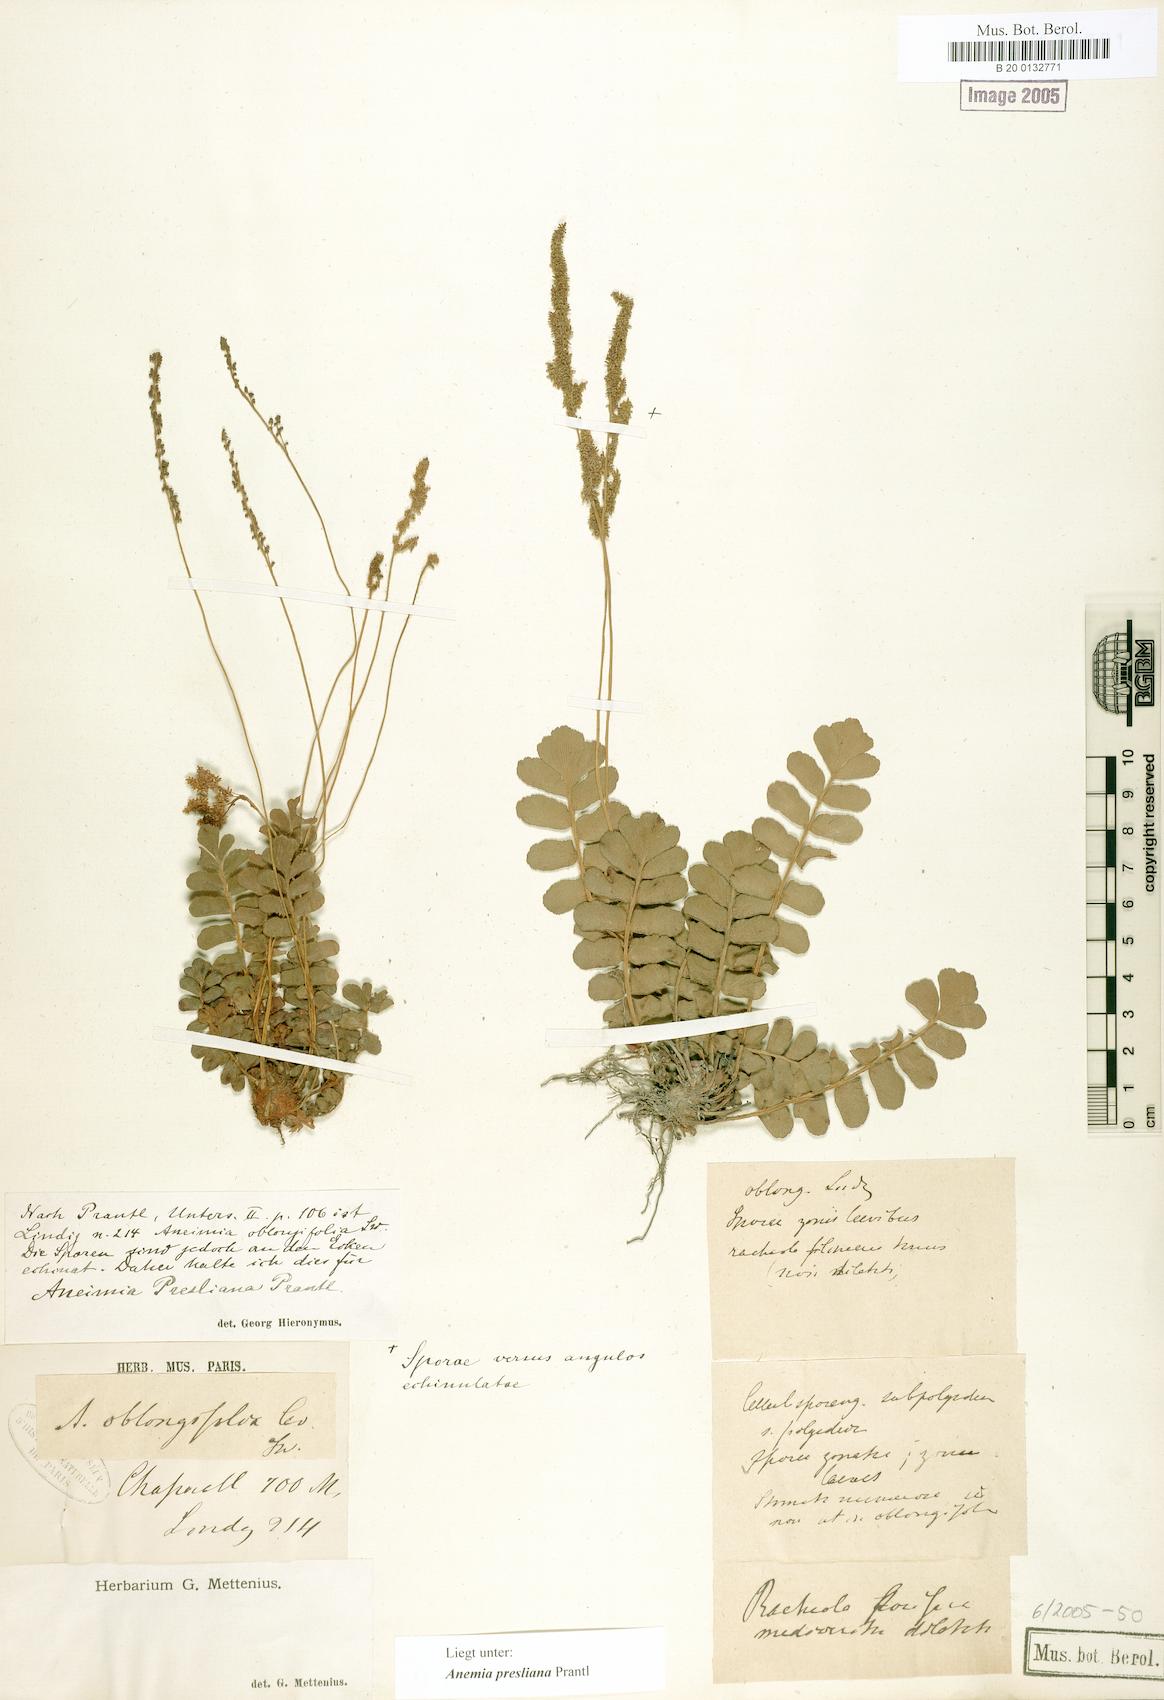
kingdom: Plantae
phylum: Tracheophyta
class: Polypodiopsida
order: Schizaeales
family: Anemiaceae
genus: Anemia
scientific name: Anemia presliana
